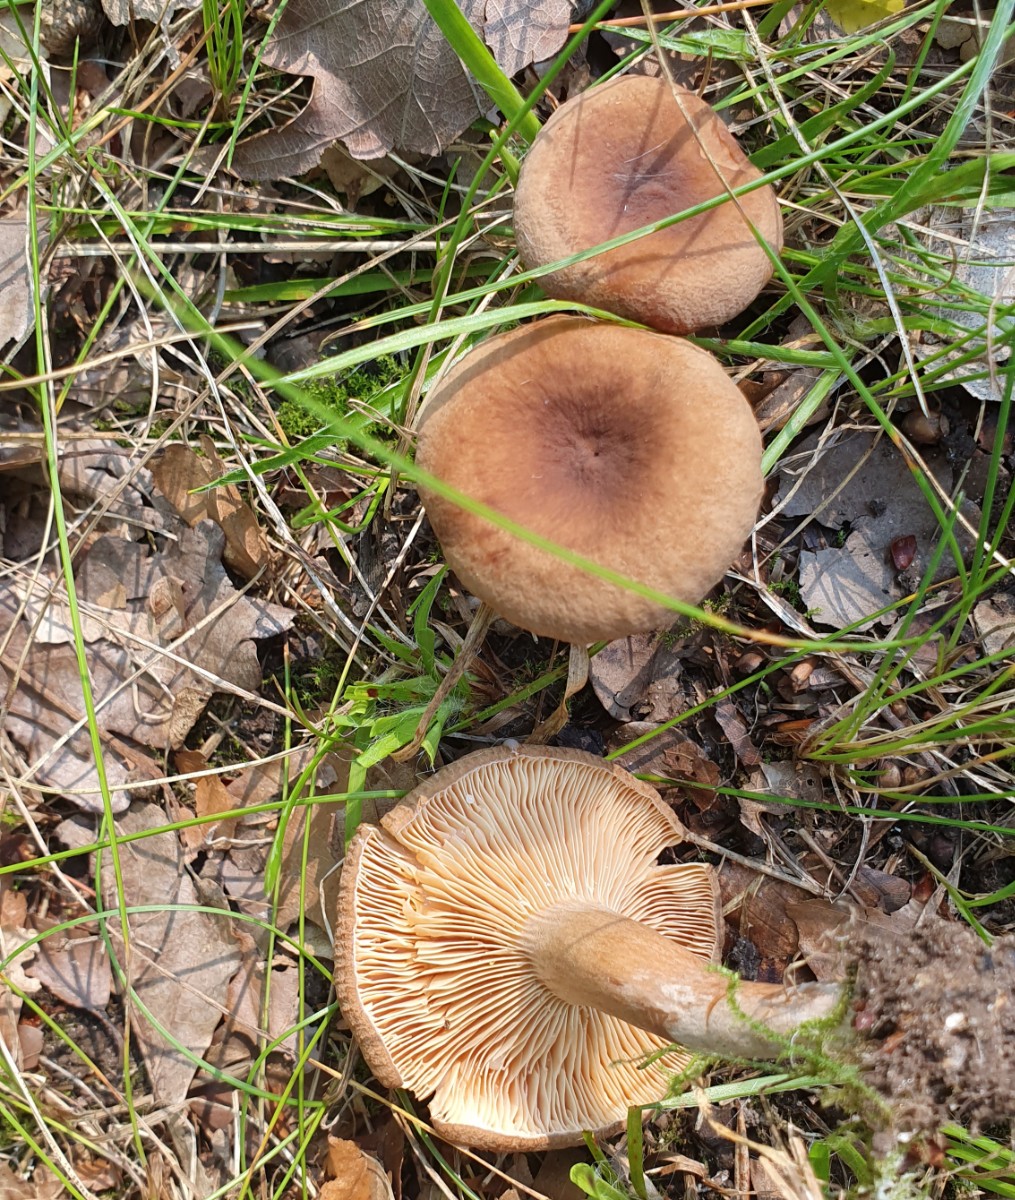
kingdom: Fungi
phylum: Basidiomycota
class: Agaricomycetes
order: Russulales
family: Russulaceae
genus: Lactarius
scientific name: Lactarius serifluus
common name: tæge-mælkehat
